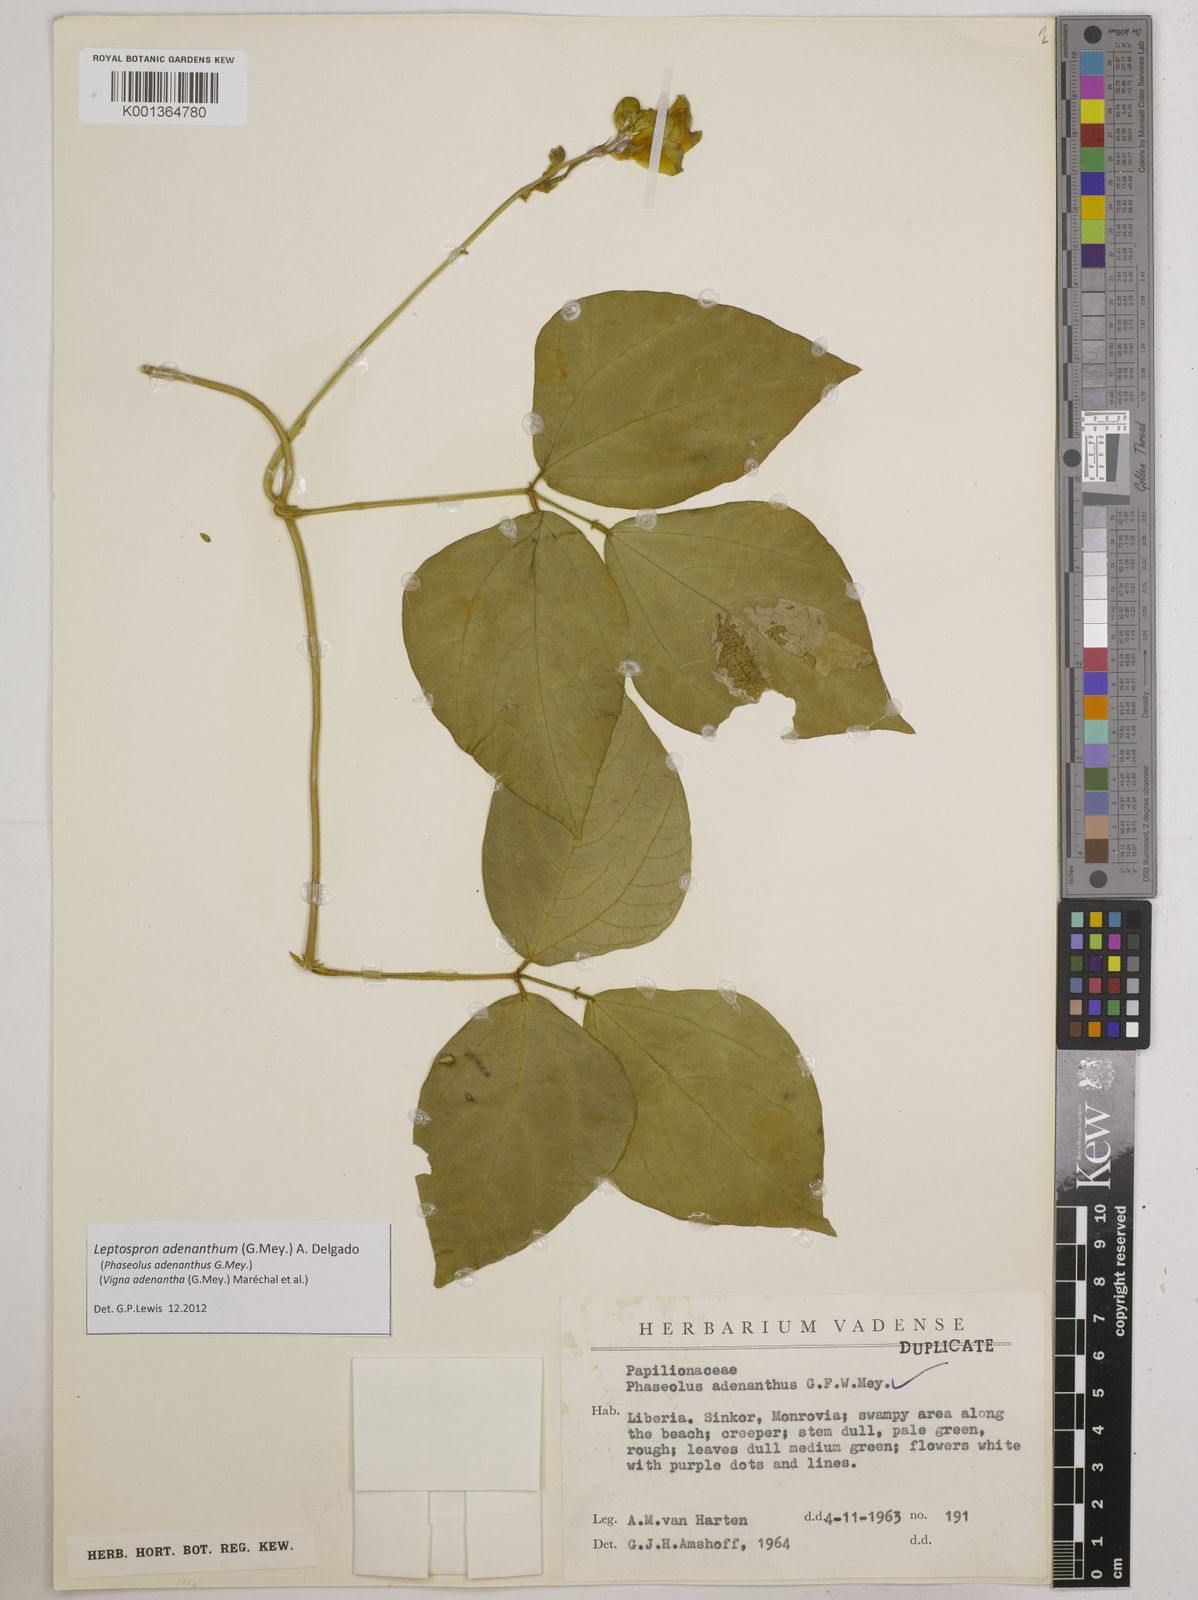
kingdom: Plantae
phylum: Tracheophyta
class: Magnoliopsida
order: Fabales
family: Fabaceae
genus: Leptospron
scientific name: Leptospron adenanthum
